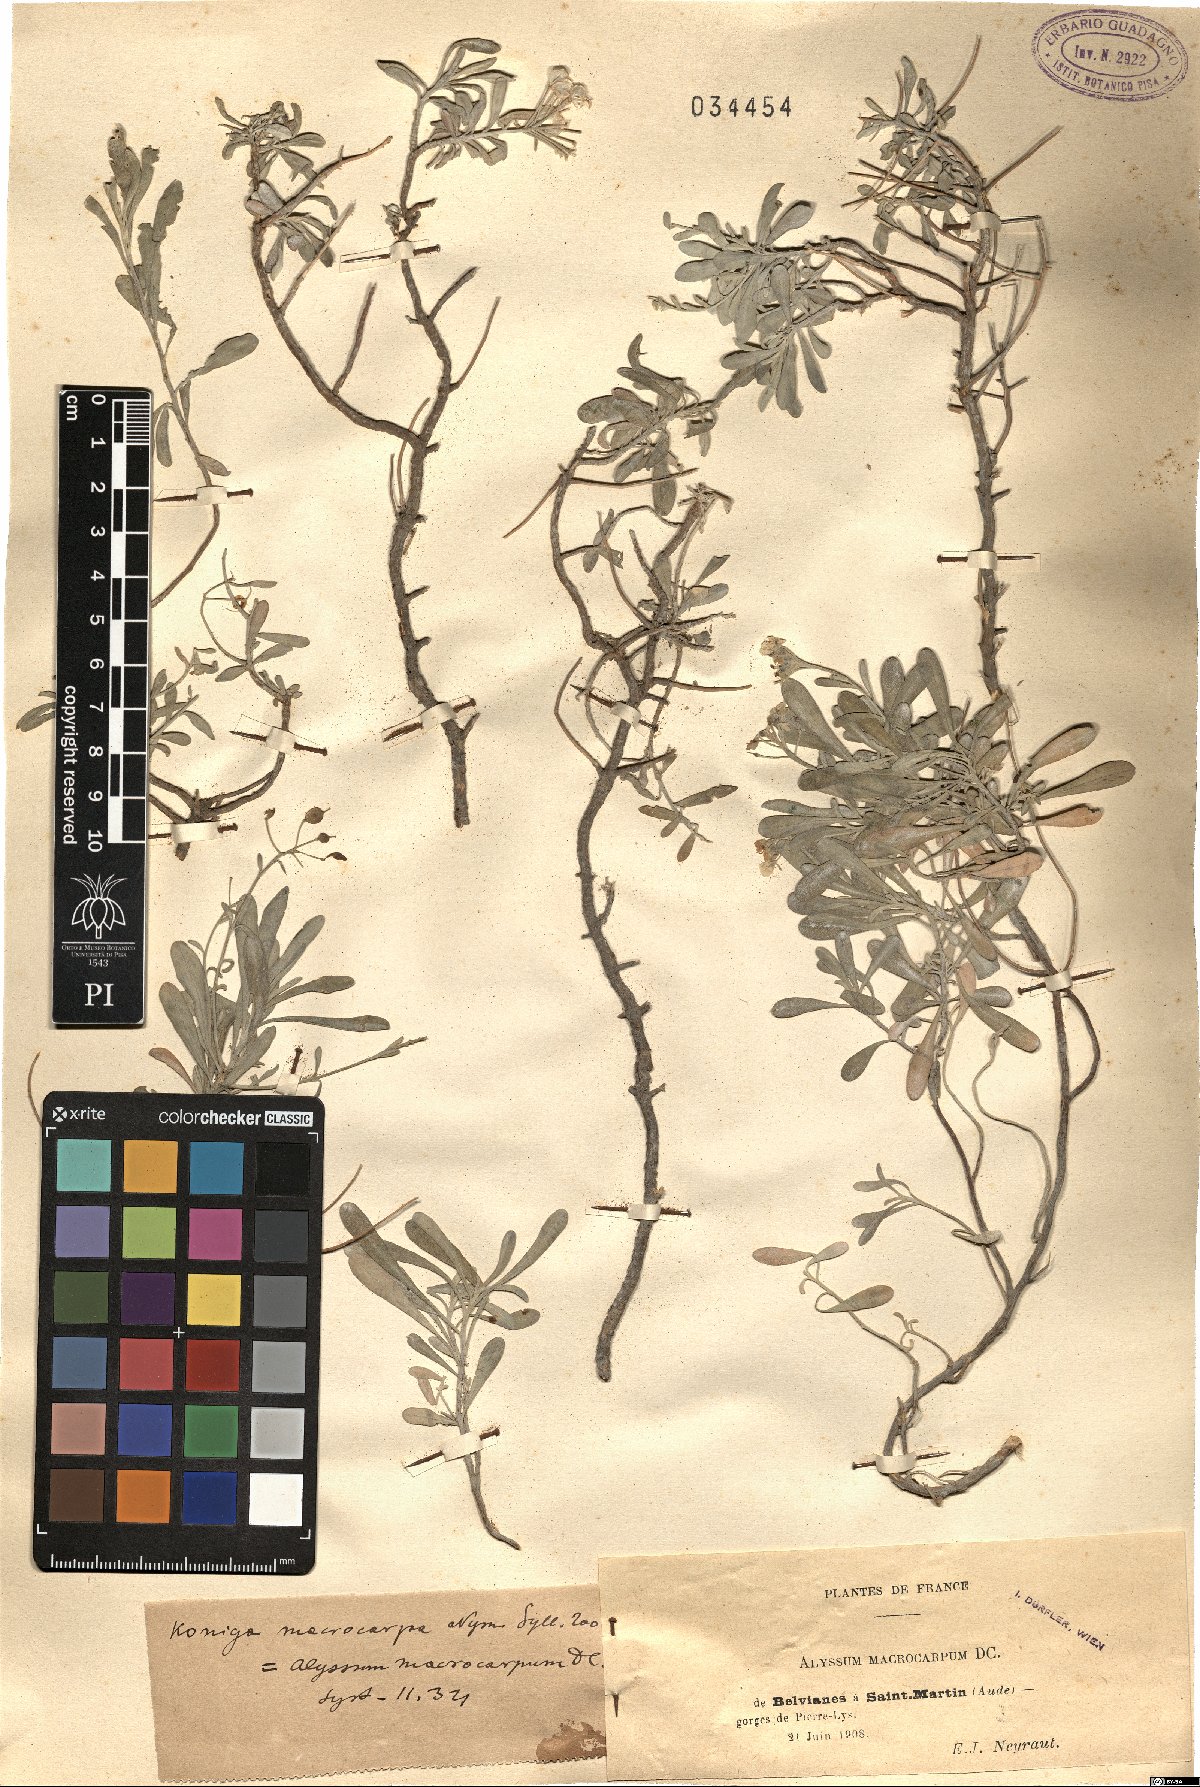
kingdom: Plantae
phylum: Tracheophyta
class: Magnoliopsida
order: Brassicales
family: Brassicaceae
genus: Hormathophylla
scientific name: Hormathophylla kuepferiana
